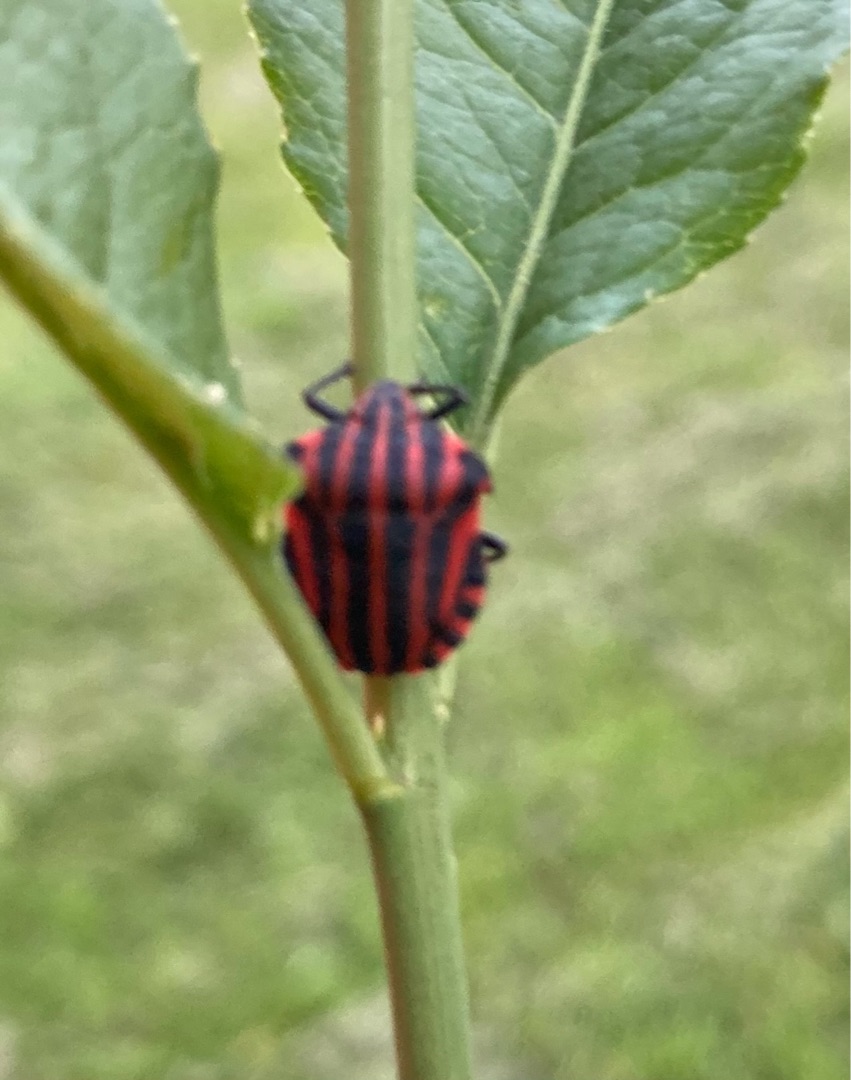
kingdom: Animalia
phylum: Arthropoda
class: Insecta
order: Hemiptera
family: Pentatomidae
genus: Graphosoma
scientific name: Graphosoma italicum
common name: Stribetæge
